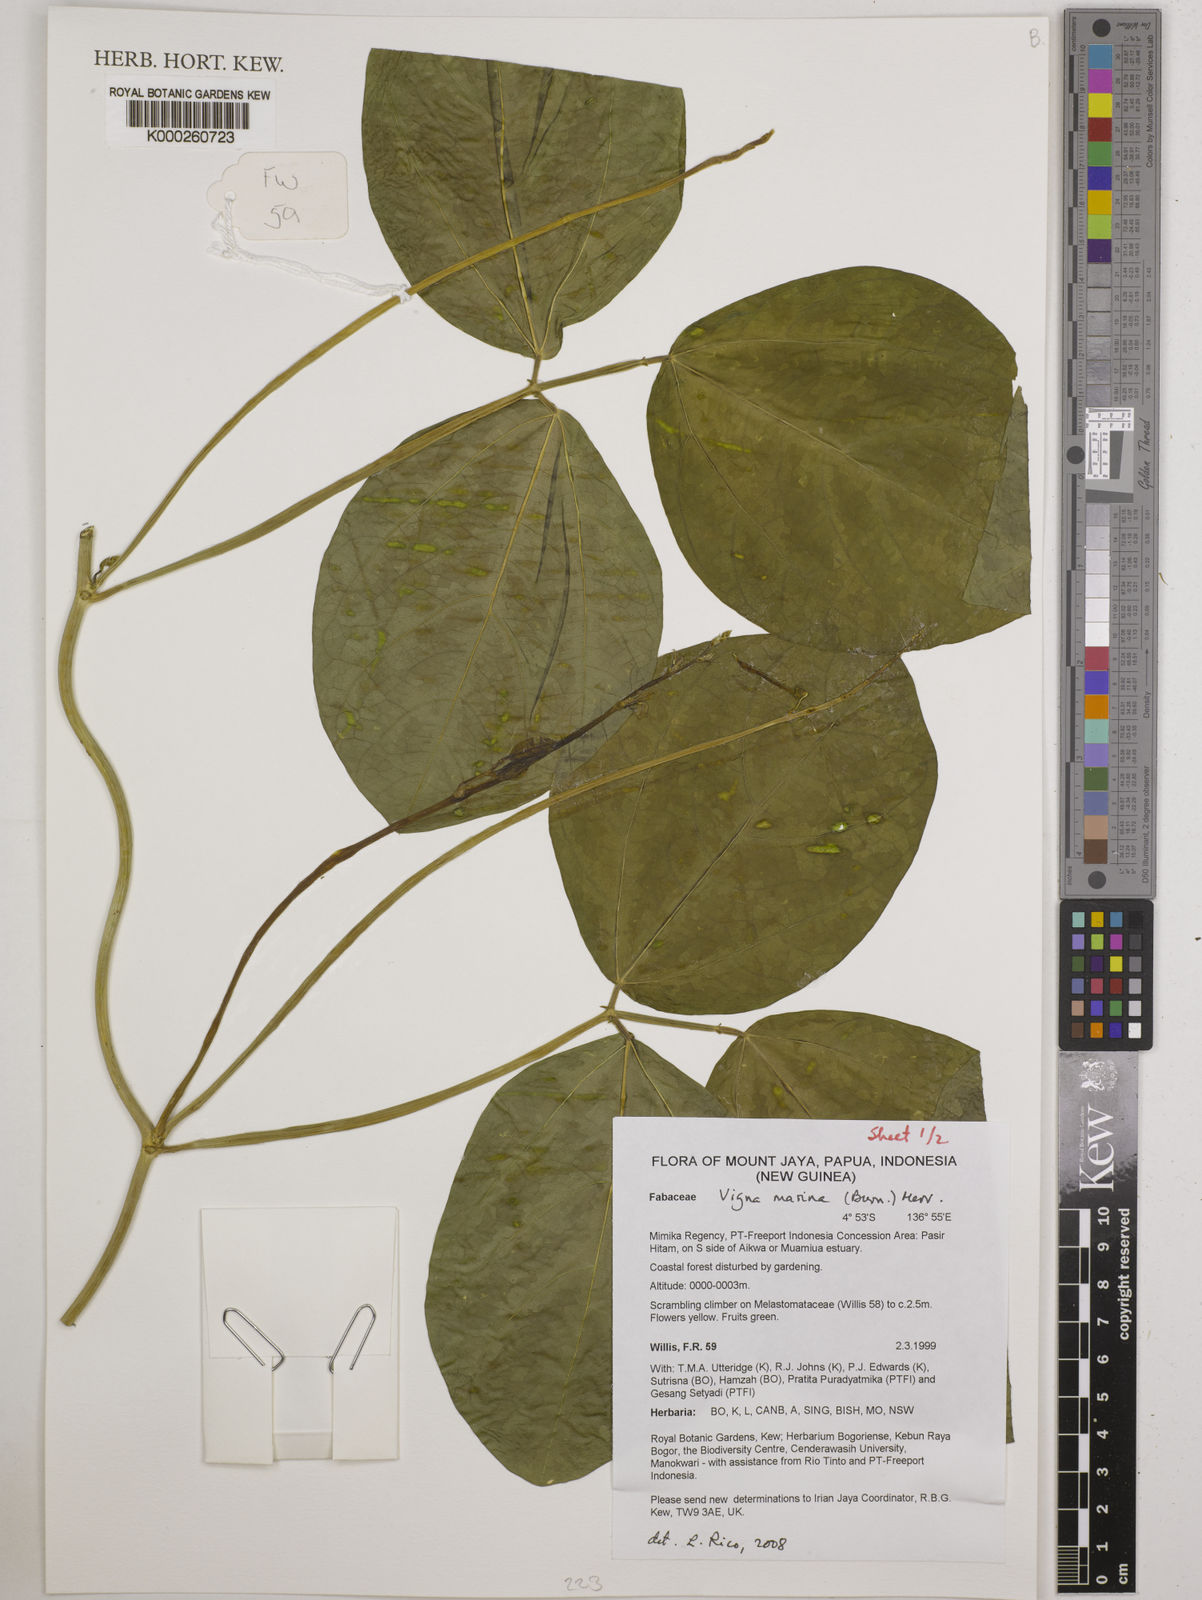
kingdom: Plantae
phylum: Tracheophyta
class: Magnoliopsida
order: Fabales
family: Fabaceae
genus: Vigna
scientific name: Vigna marina
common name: Dune-bean
